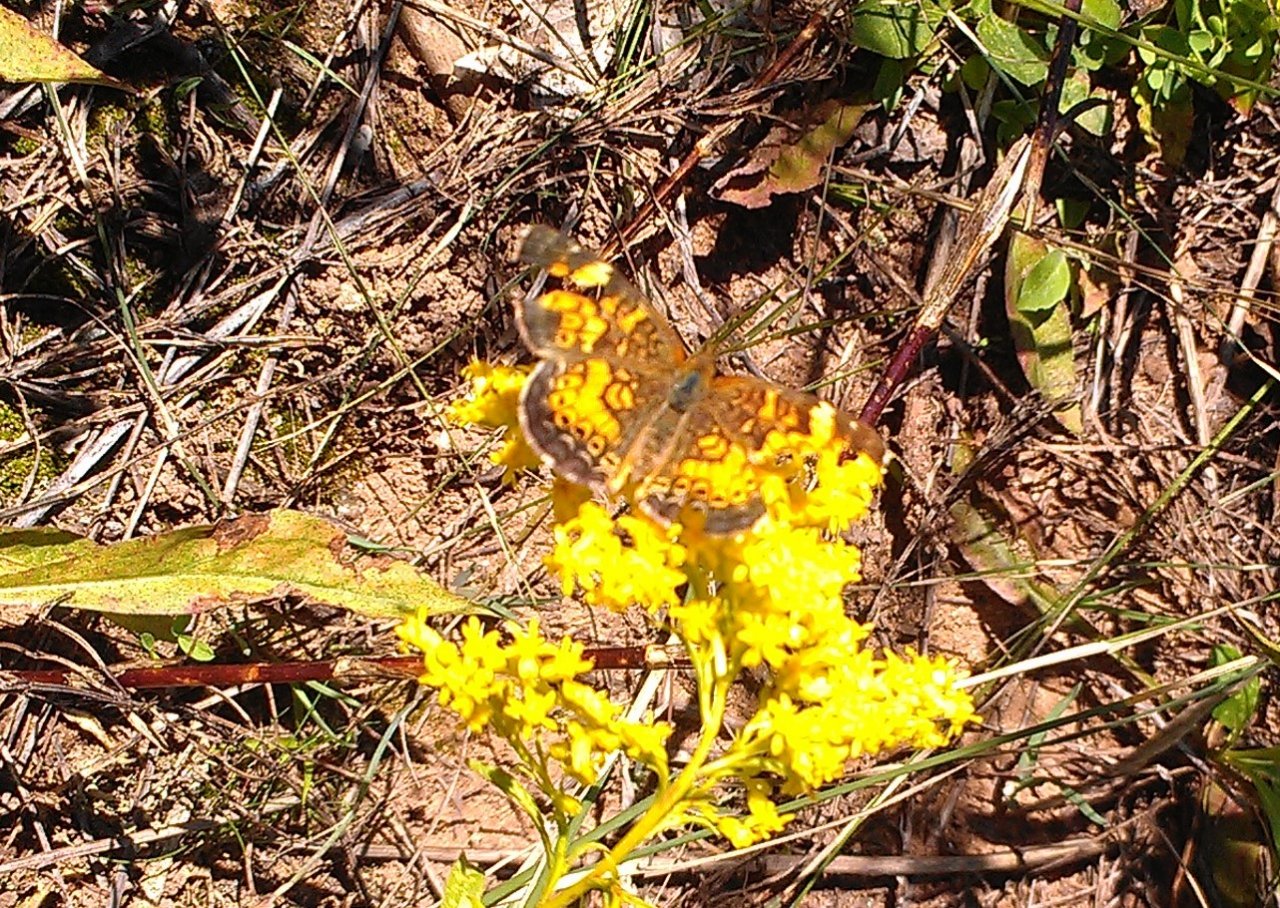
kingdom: Animalia
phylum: Arthropoda
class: Insecta
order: Lepidoptera
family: Nymphalidae
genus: Phyciodes
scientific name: Phyciodes tharos
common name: Northern Crescent
